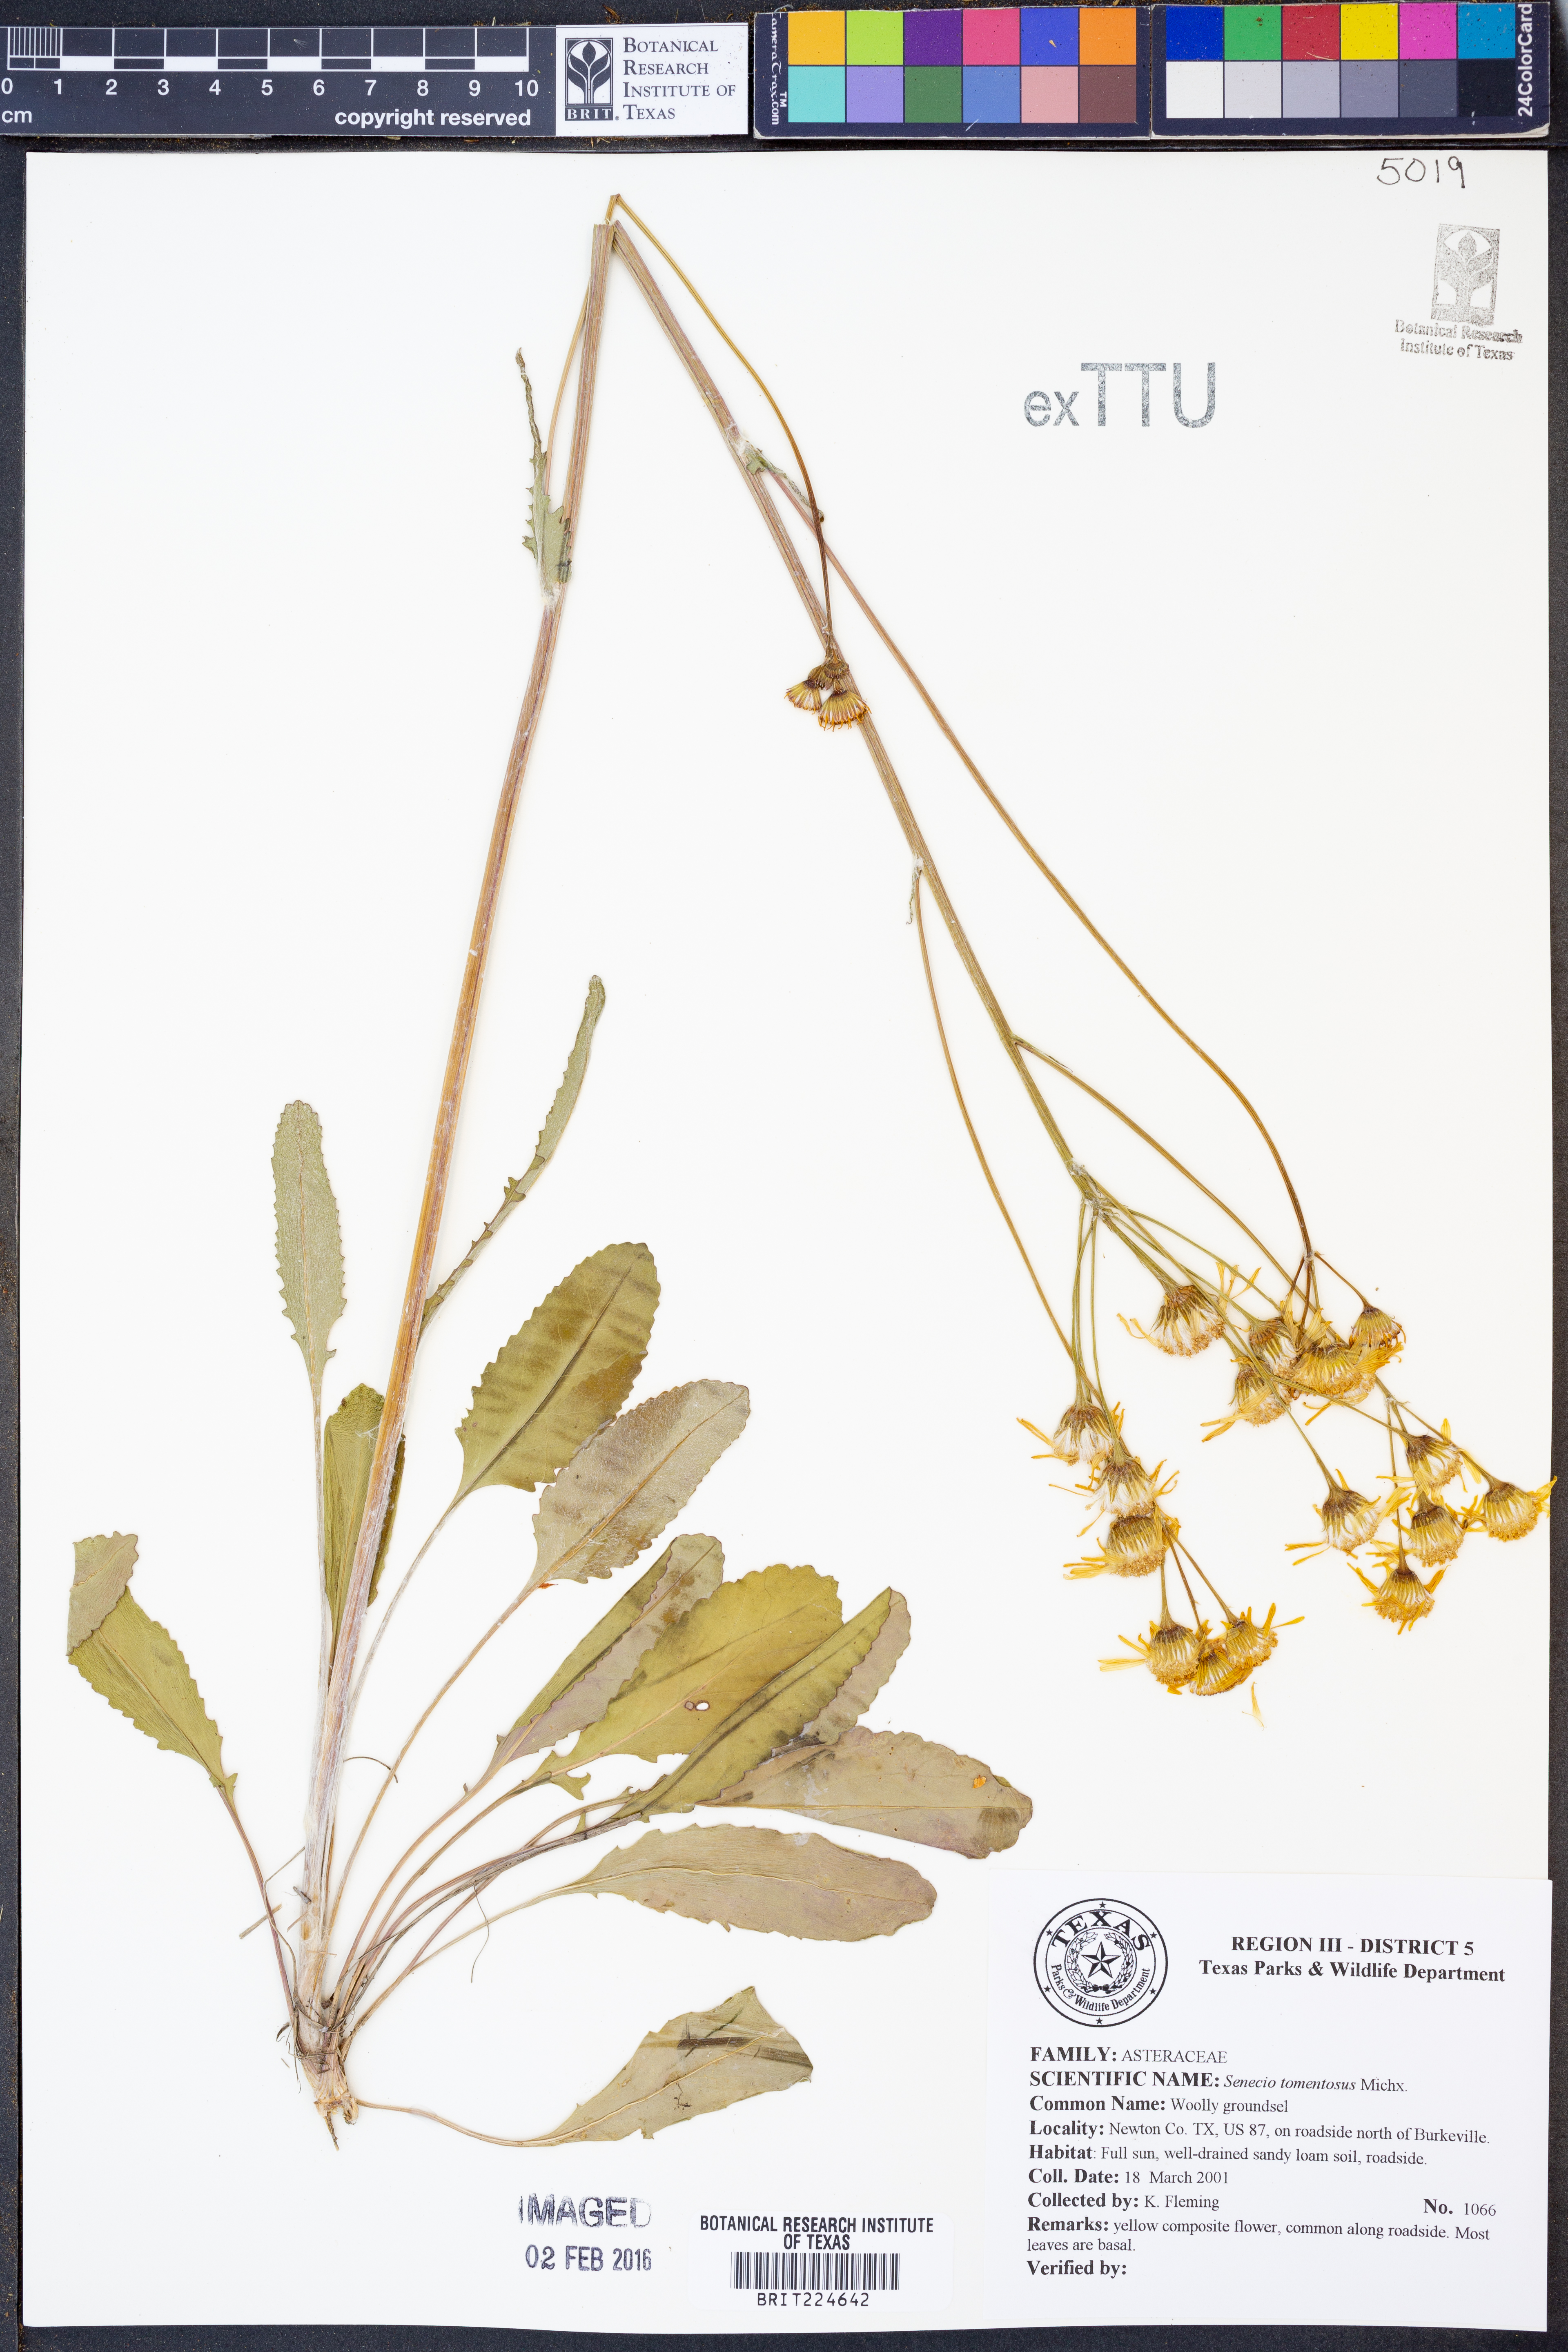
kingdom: Plantae
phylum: Tracheophyta
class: Magnoliopsida
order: Asterales
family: Asteraceae
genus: Senecio
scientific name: Senecio cinerascens
